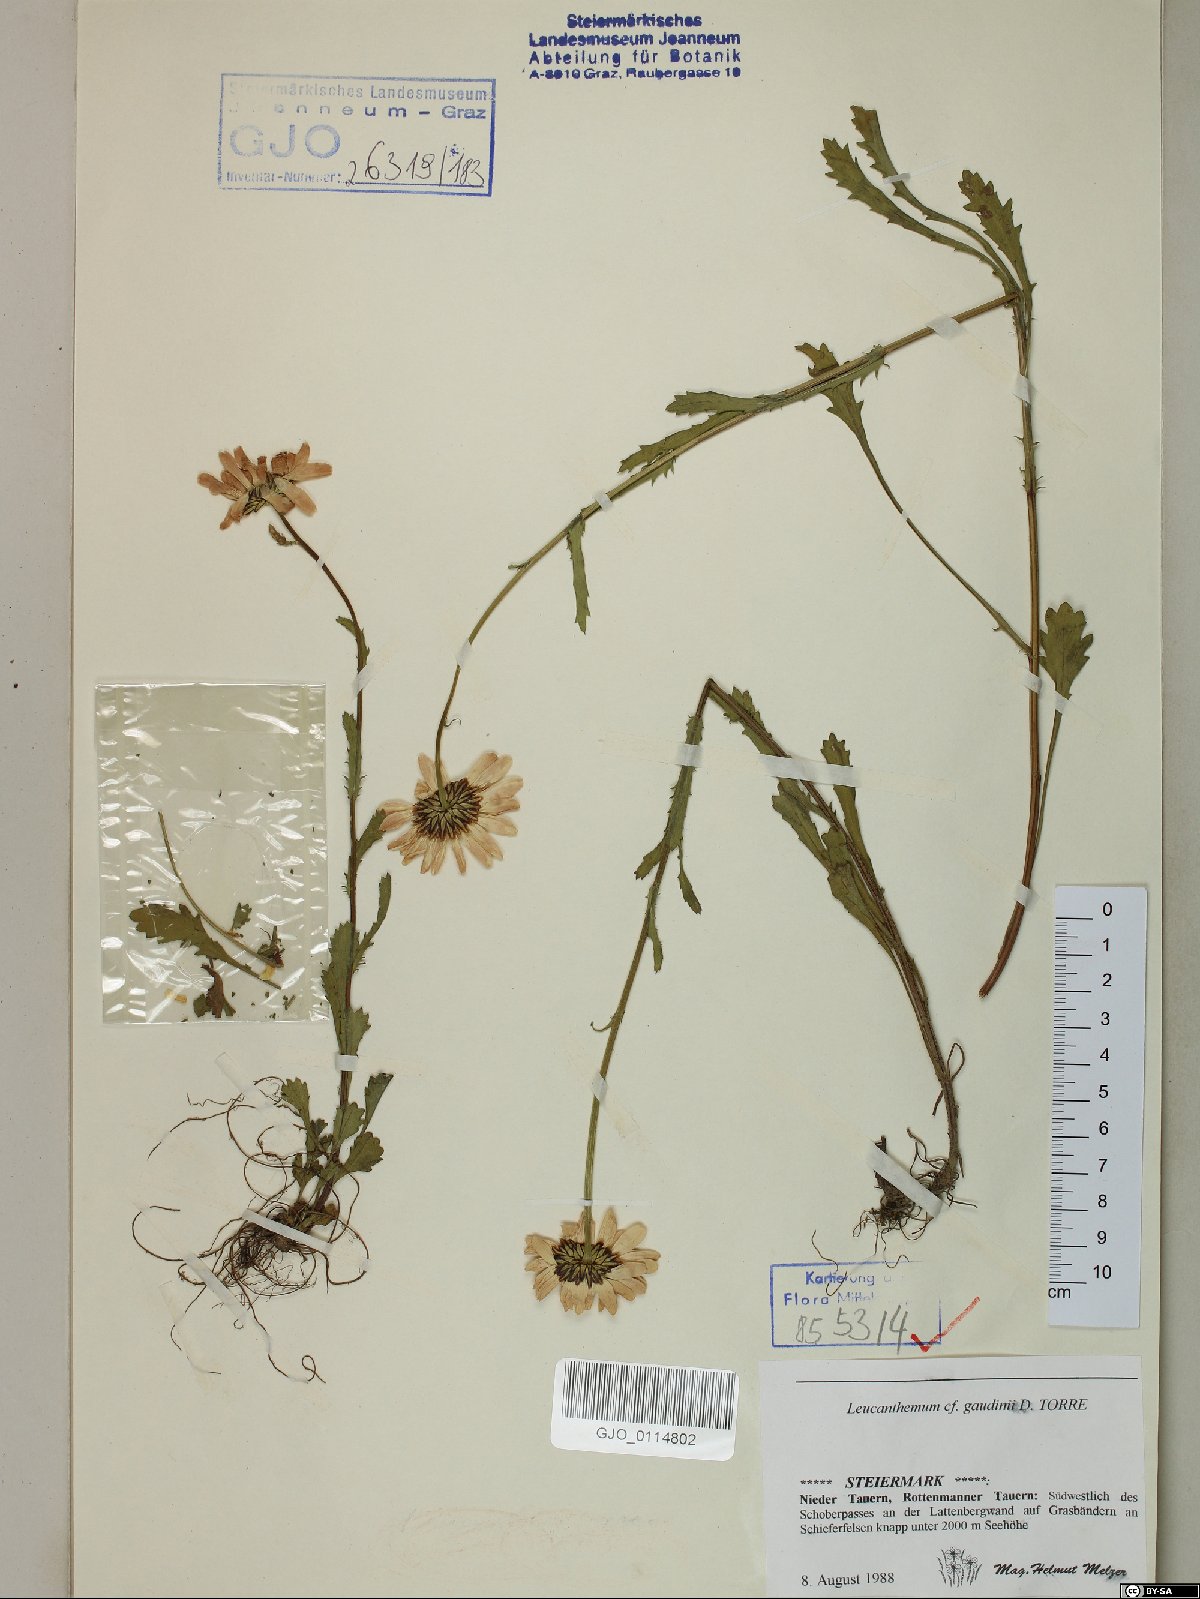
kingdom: Plantae
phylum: Tracheophyta
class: Magnoliopsida
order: Asterales
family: Asteraceae
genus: Leucanthemum
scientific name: Leucanthemum gaudinii
